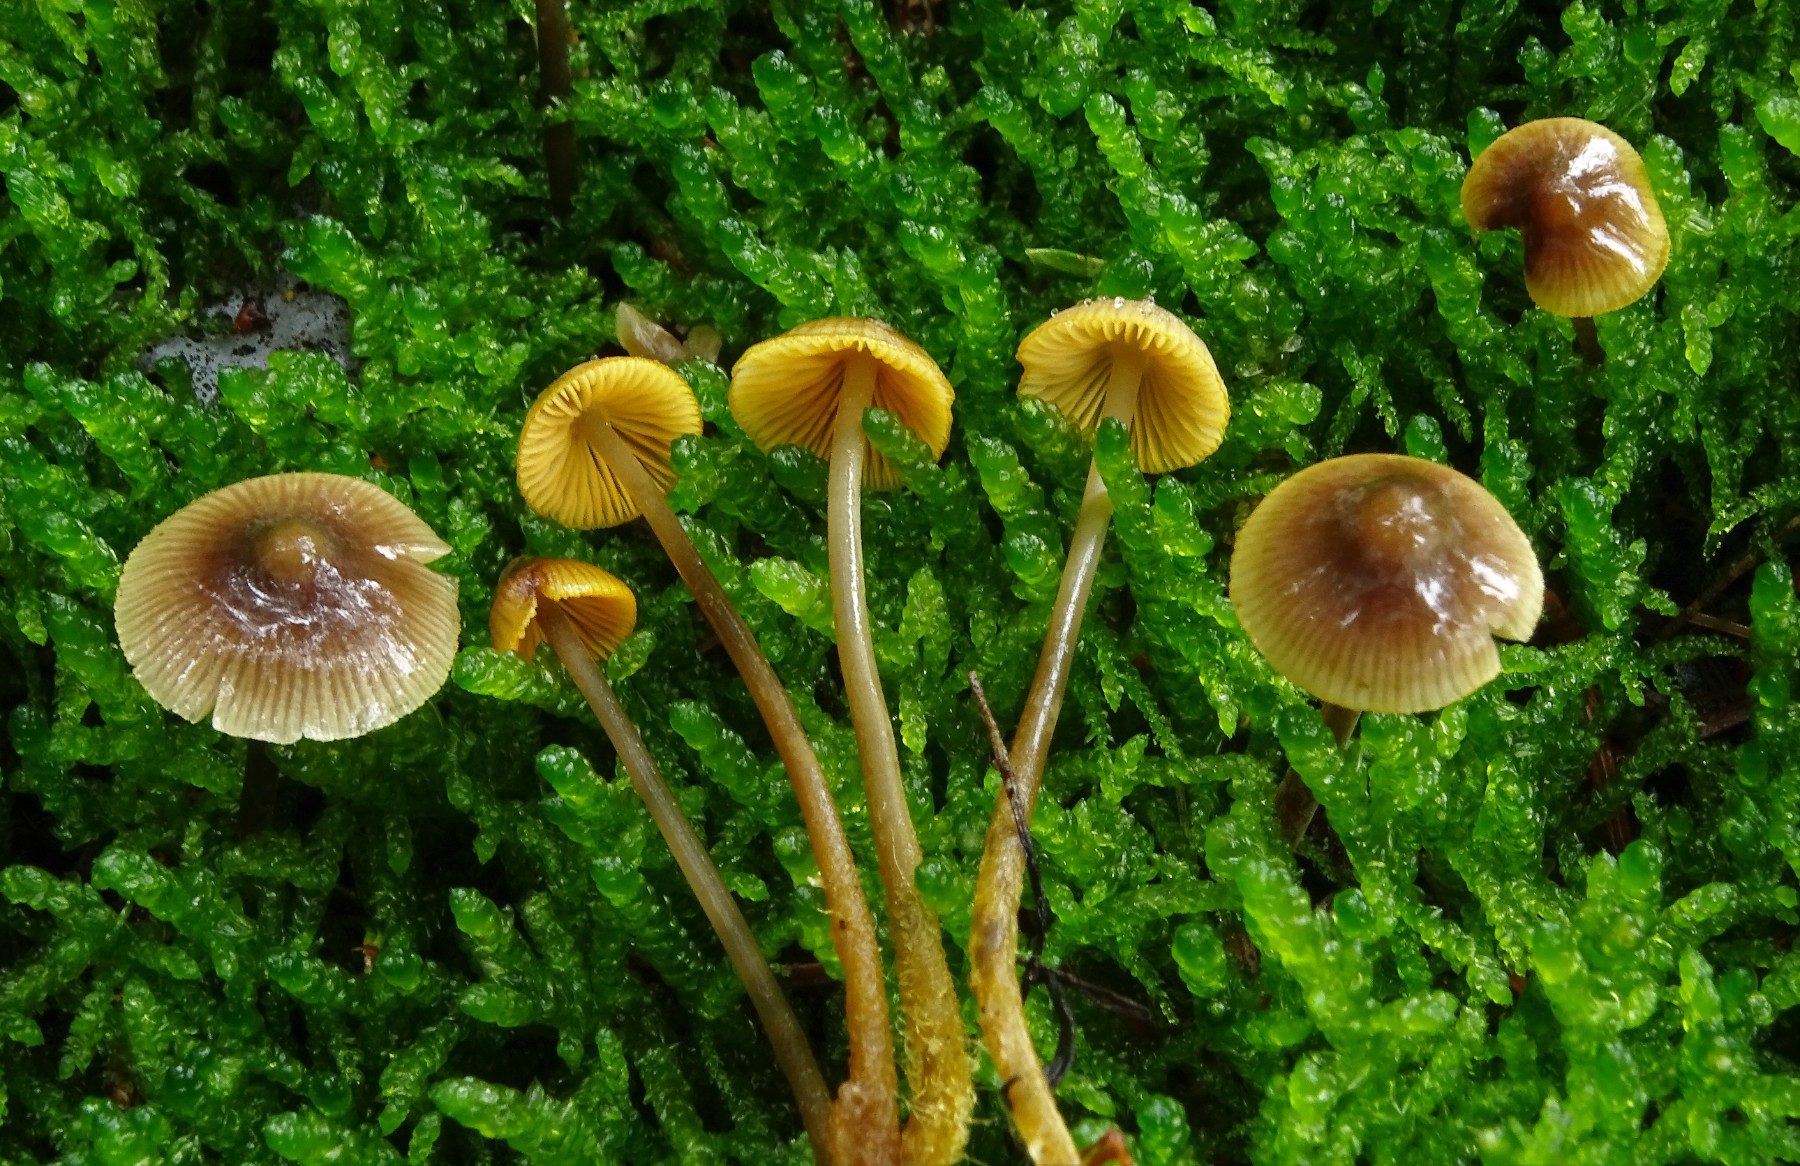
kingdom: Fungi
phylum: Basidiomycota
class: Agaricomycetes
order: Agaricales
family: Mycenaceae
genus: Mycena
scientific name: Mycena aurantiomarginata
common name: orangeægget huesvamp
